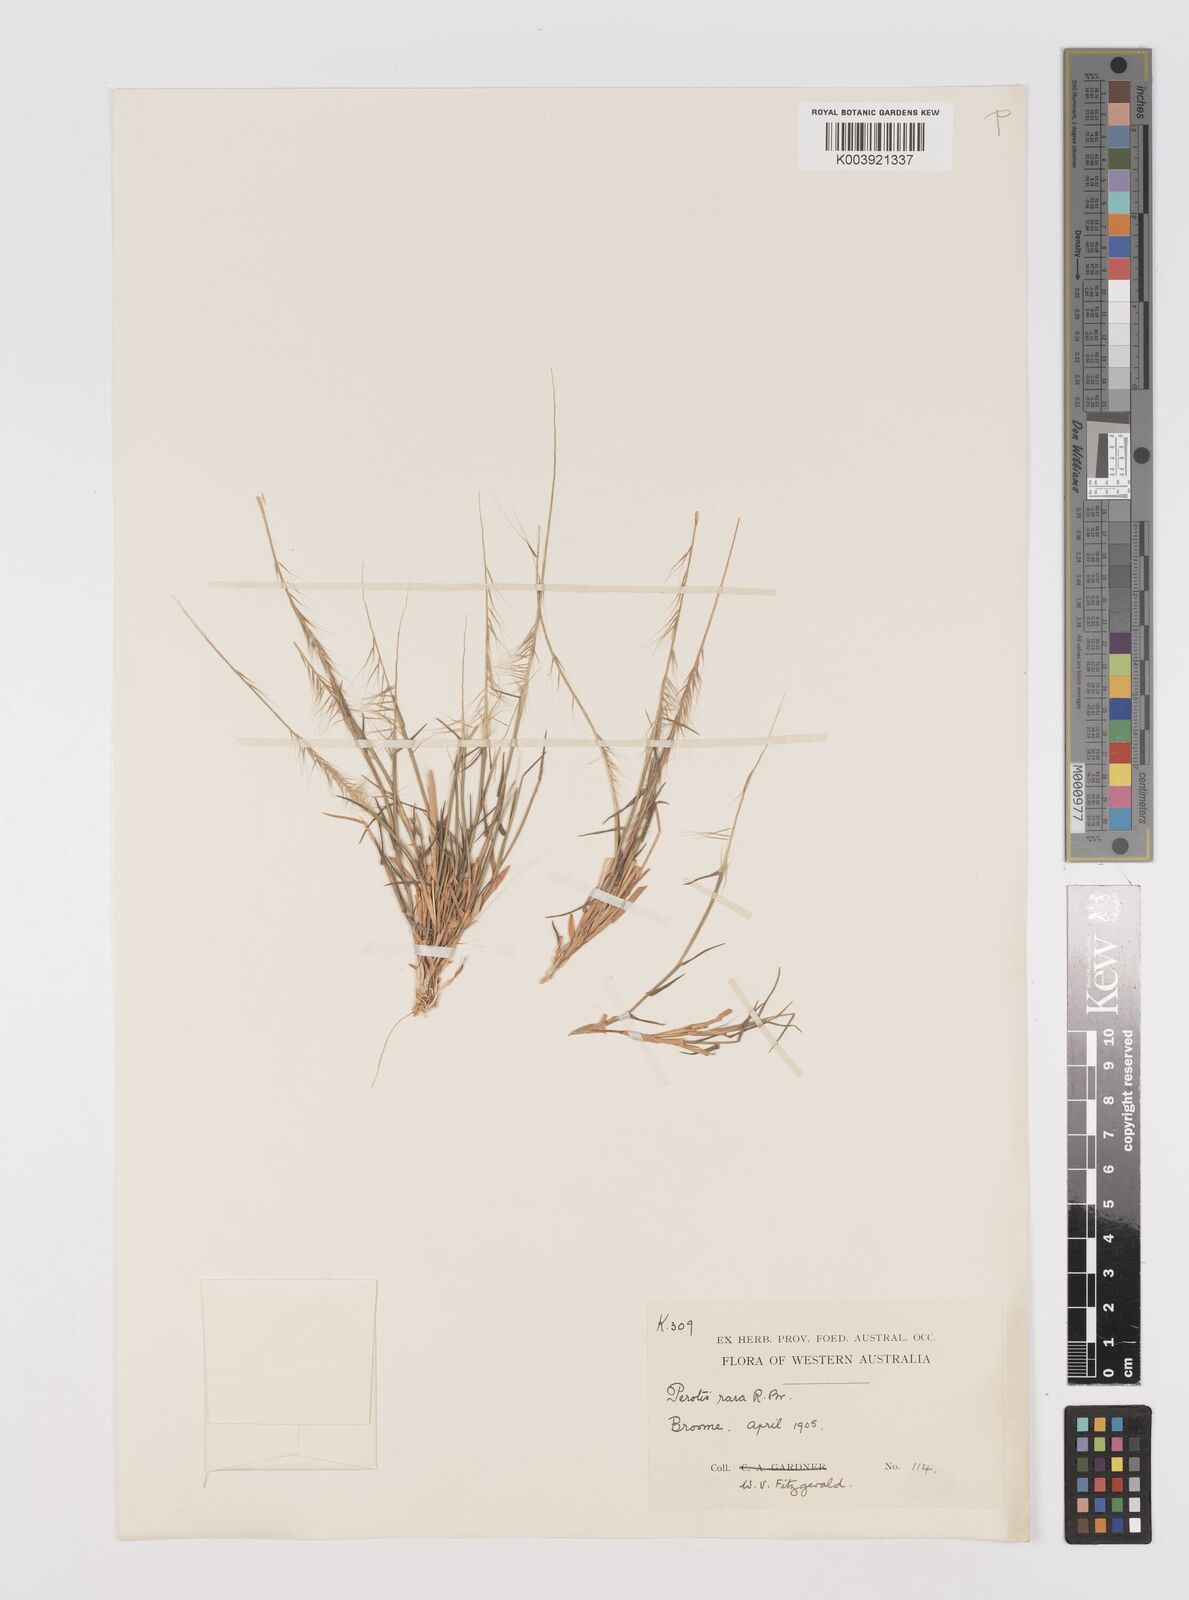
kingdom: Plantae
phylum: Tracheophyta
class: Liliopsida
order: Poales
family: Poaceae
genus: Perotis
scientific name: Perotis rara
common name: Comet grass
